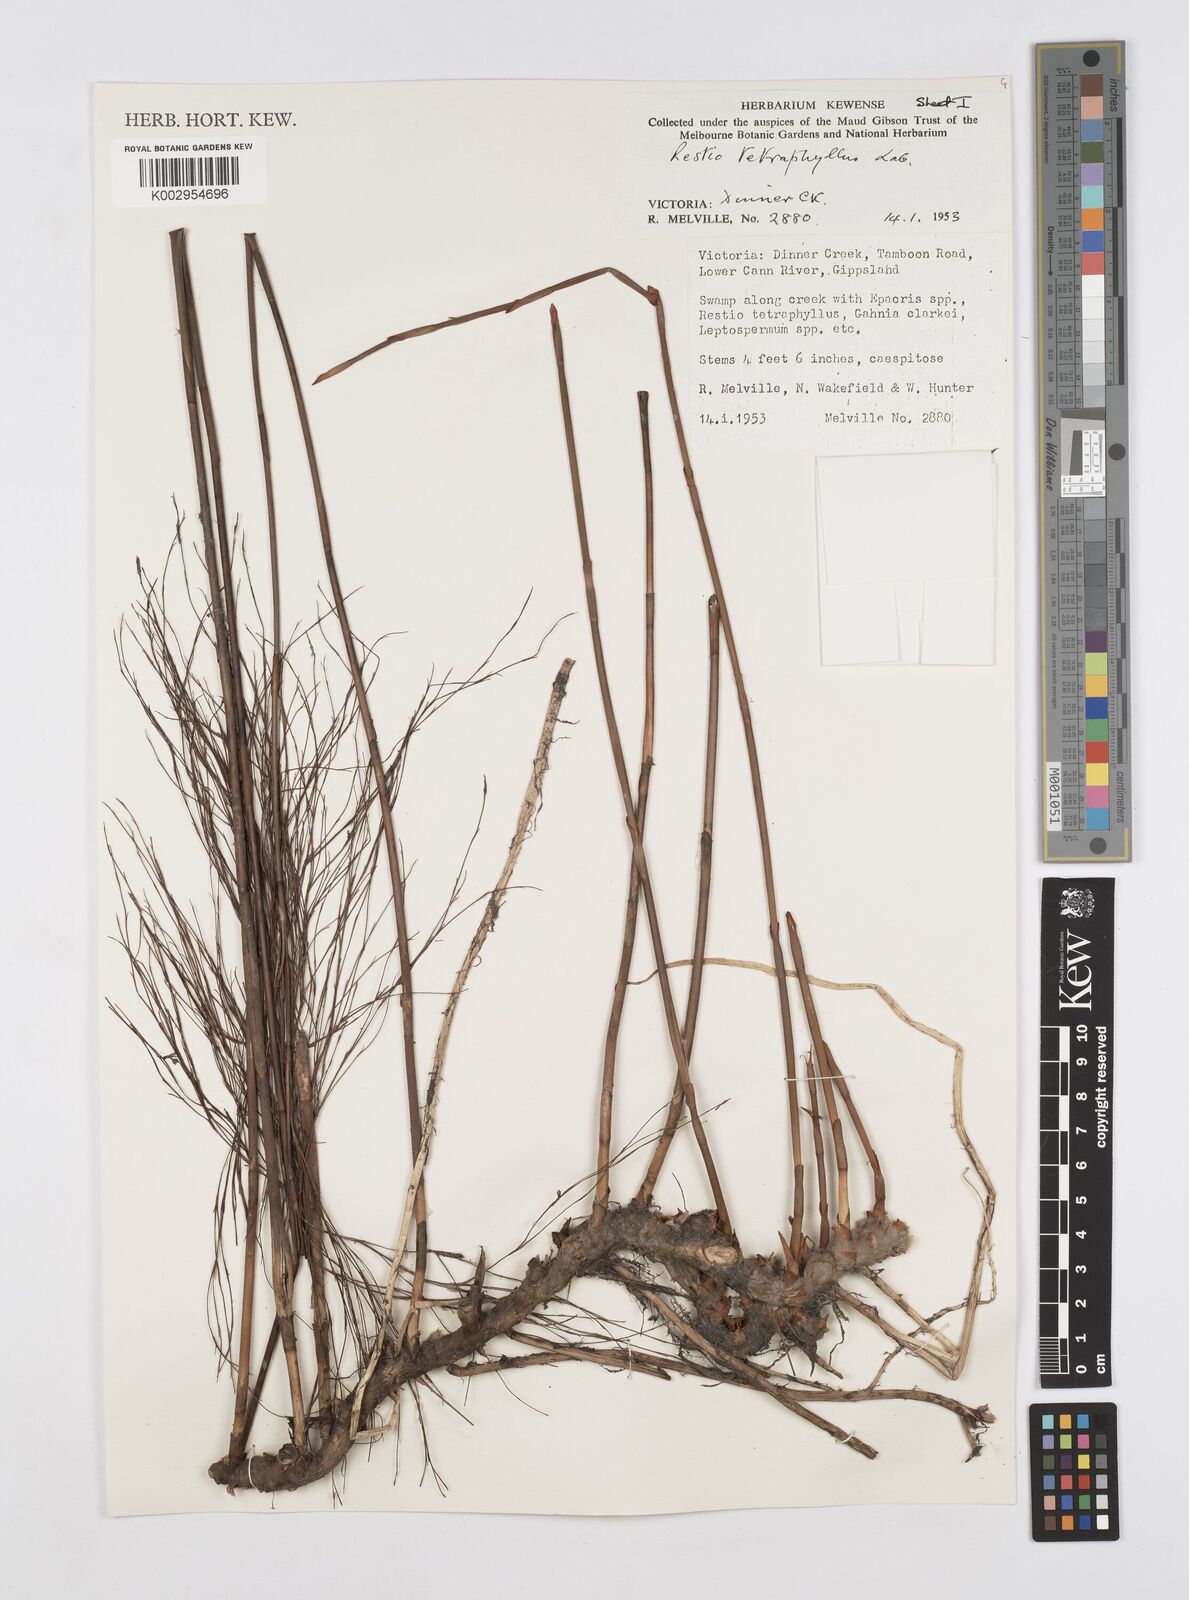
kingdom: Plantae
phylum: Tracheophyta
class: Liliopsida
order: Poales
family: Restionaceae
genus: Baloskion
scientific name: Baloskion tetraphyllum
